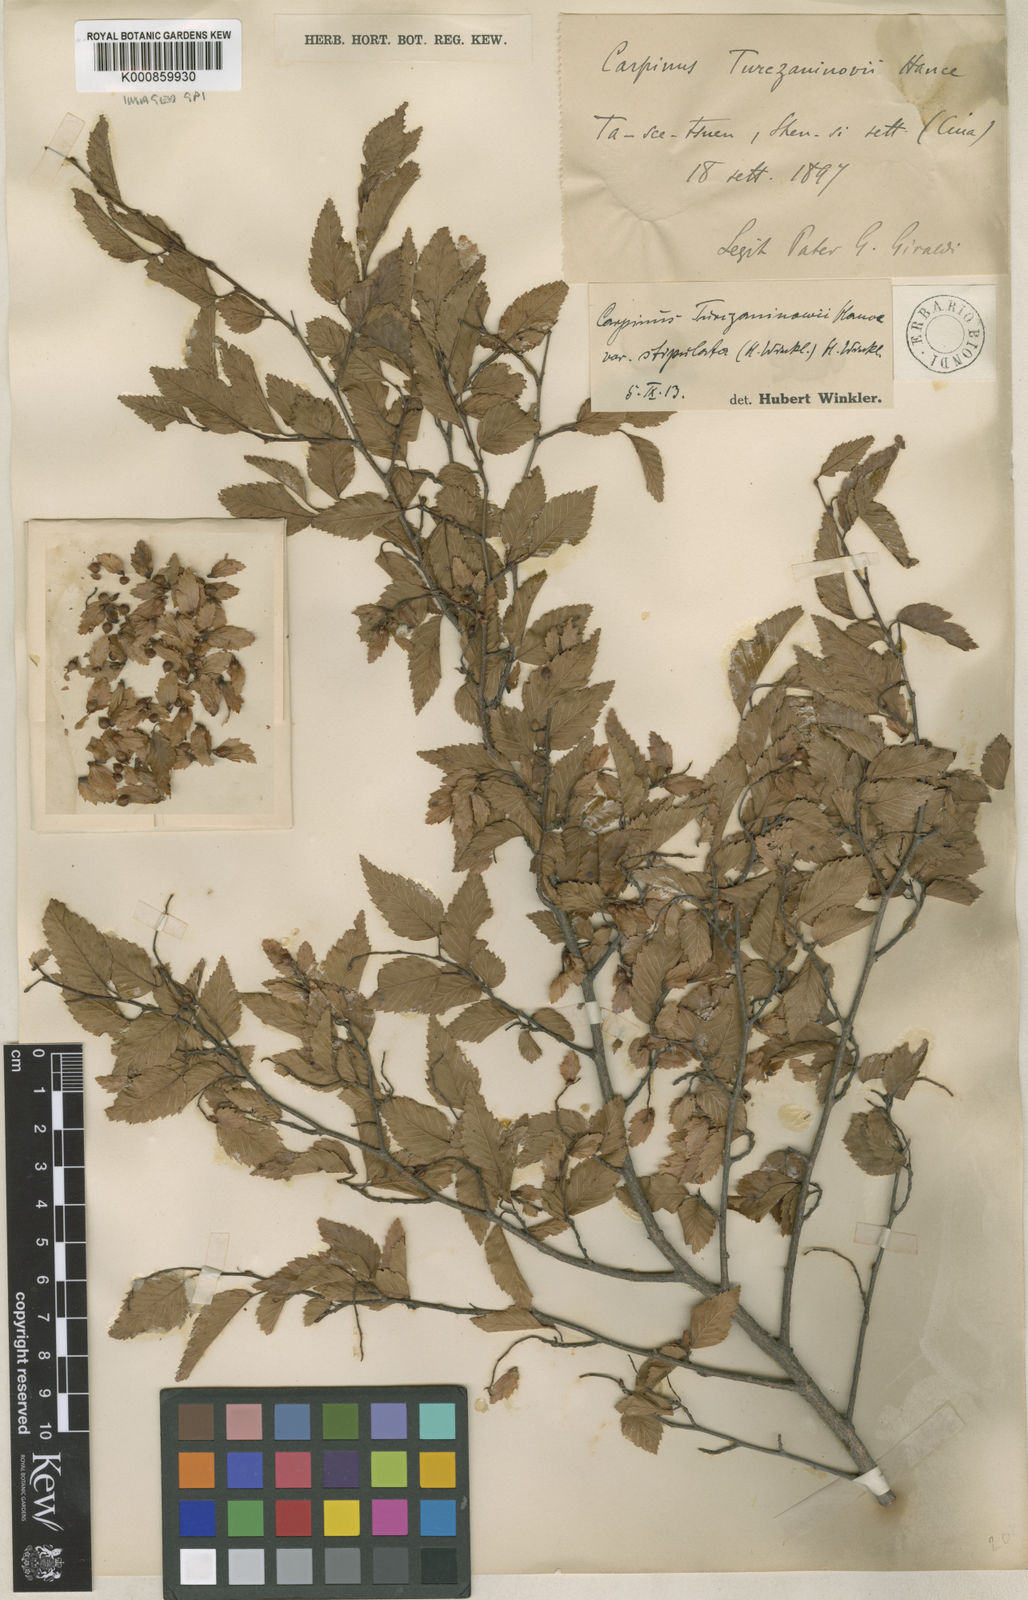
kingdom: Plantae
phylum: Tracheophyta
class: Magnoliopsida
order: Fagales
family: Betulaceae
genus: Carpinus
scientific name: Carpinus
